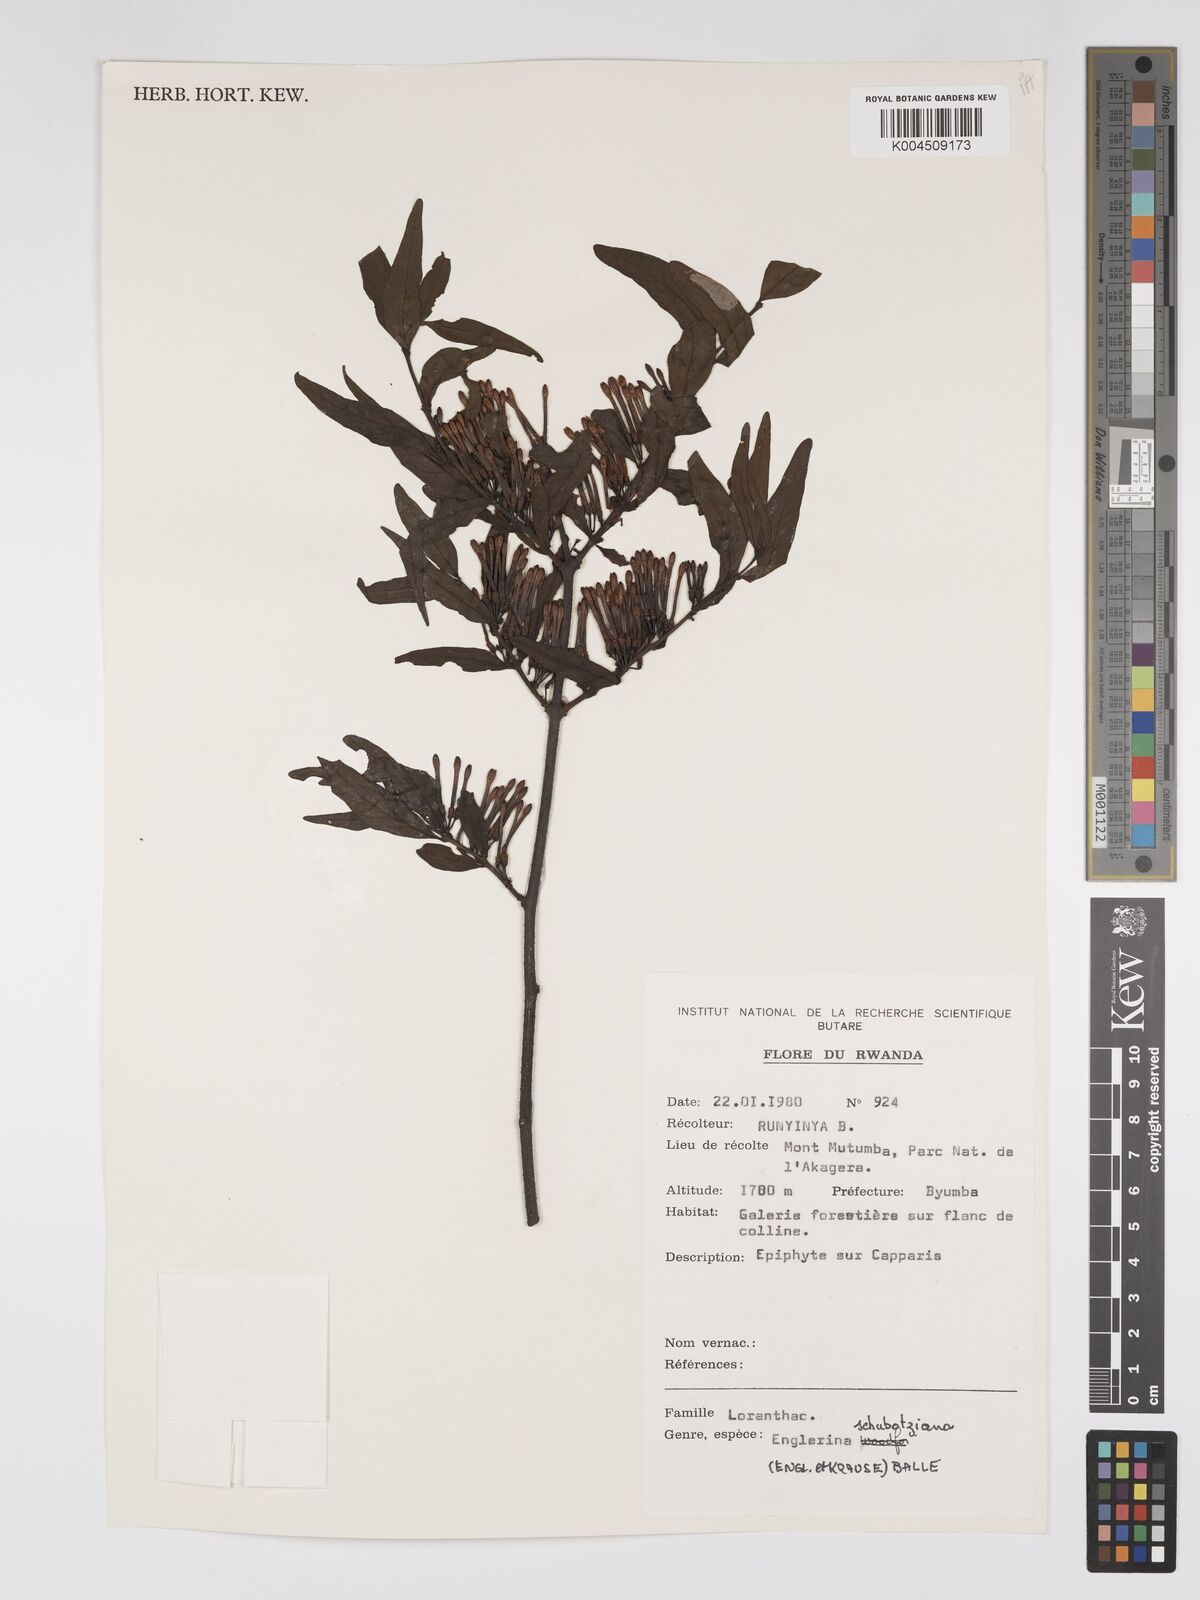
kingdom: Plantae
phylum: Tracheophyta
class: Magnoliopsida
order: Santalales
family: Loranthaceae
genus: Englerina
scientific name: Englerina schubotziana
